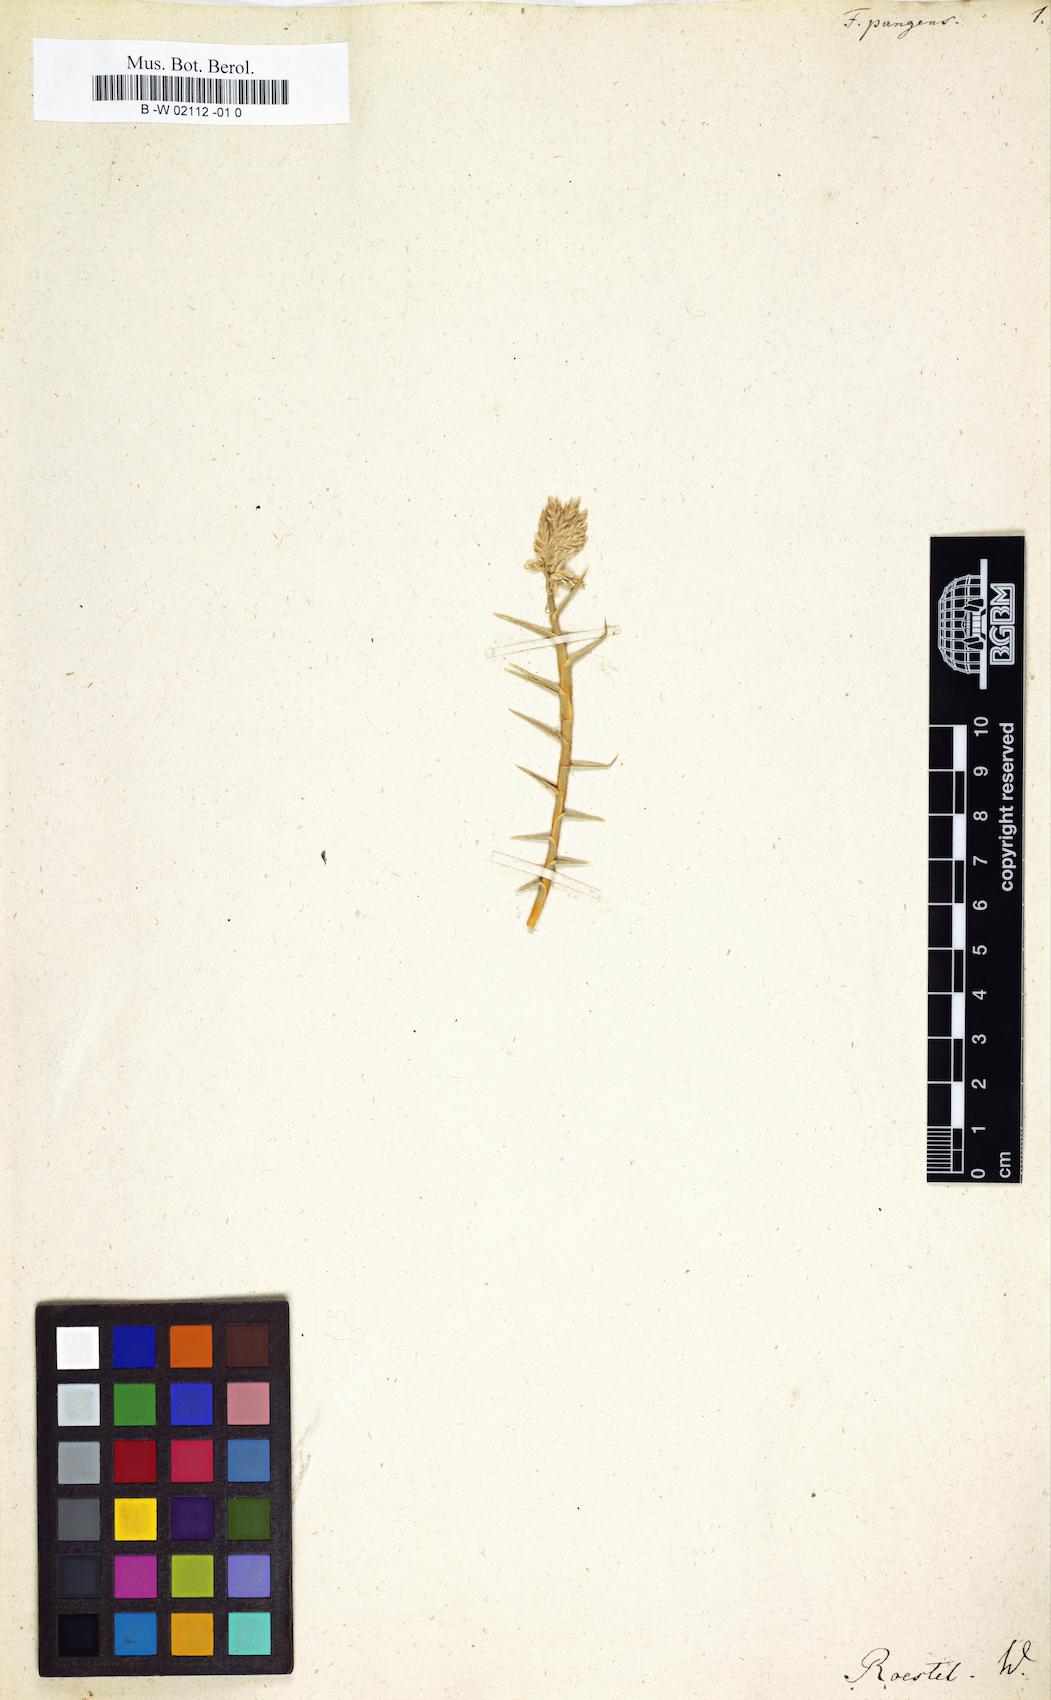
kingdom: Plantae
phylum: Tracheophyta
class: Liliopsida
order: Poales
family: Poaceae
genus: Zaqiqah
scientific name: Zaqiqah mucronata
